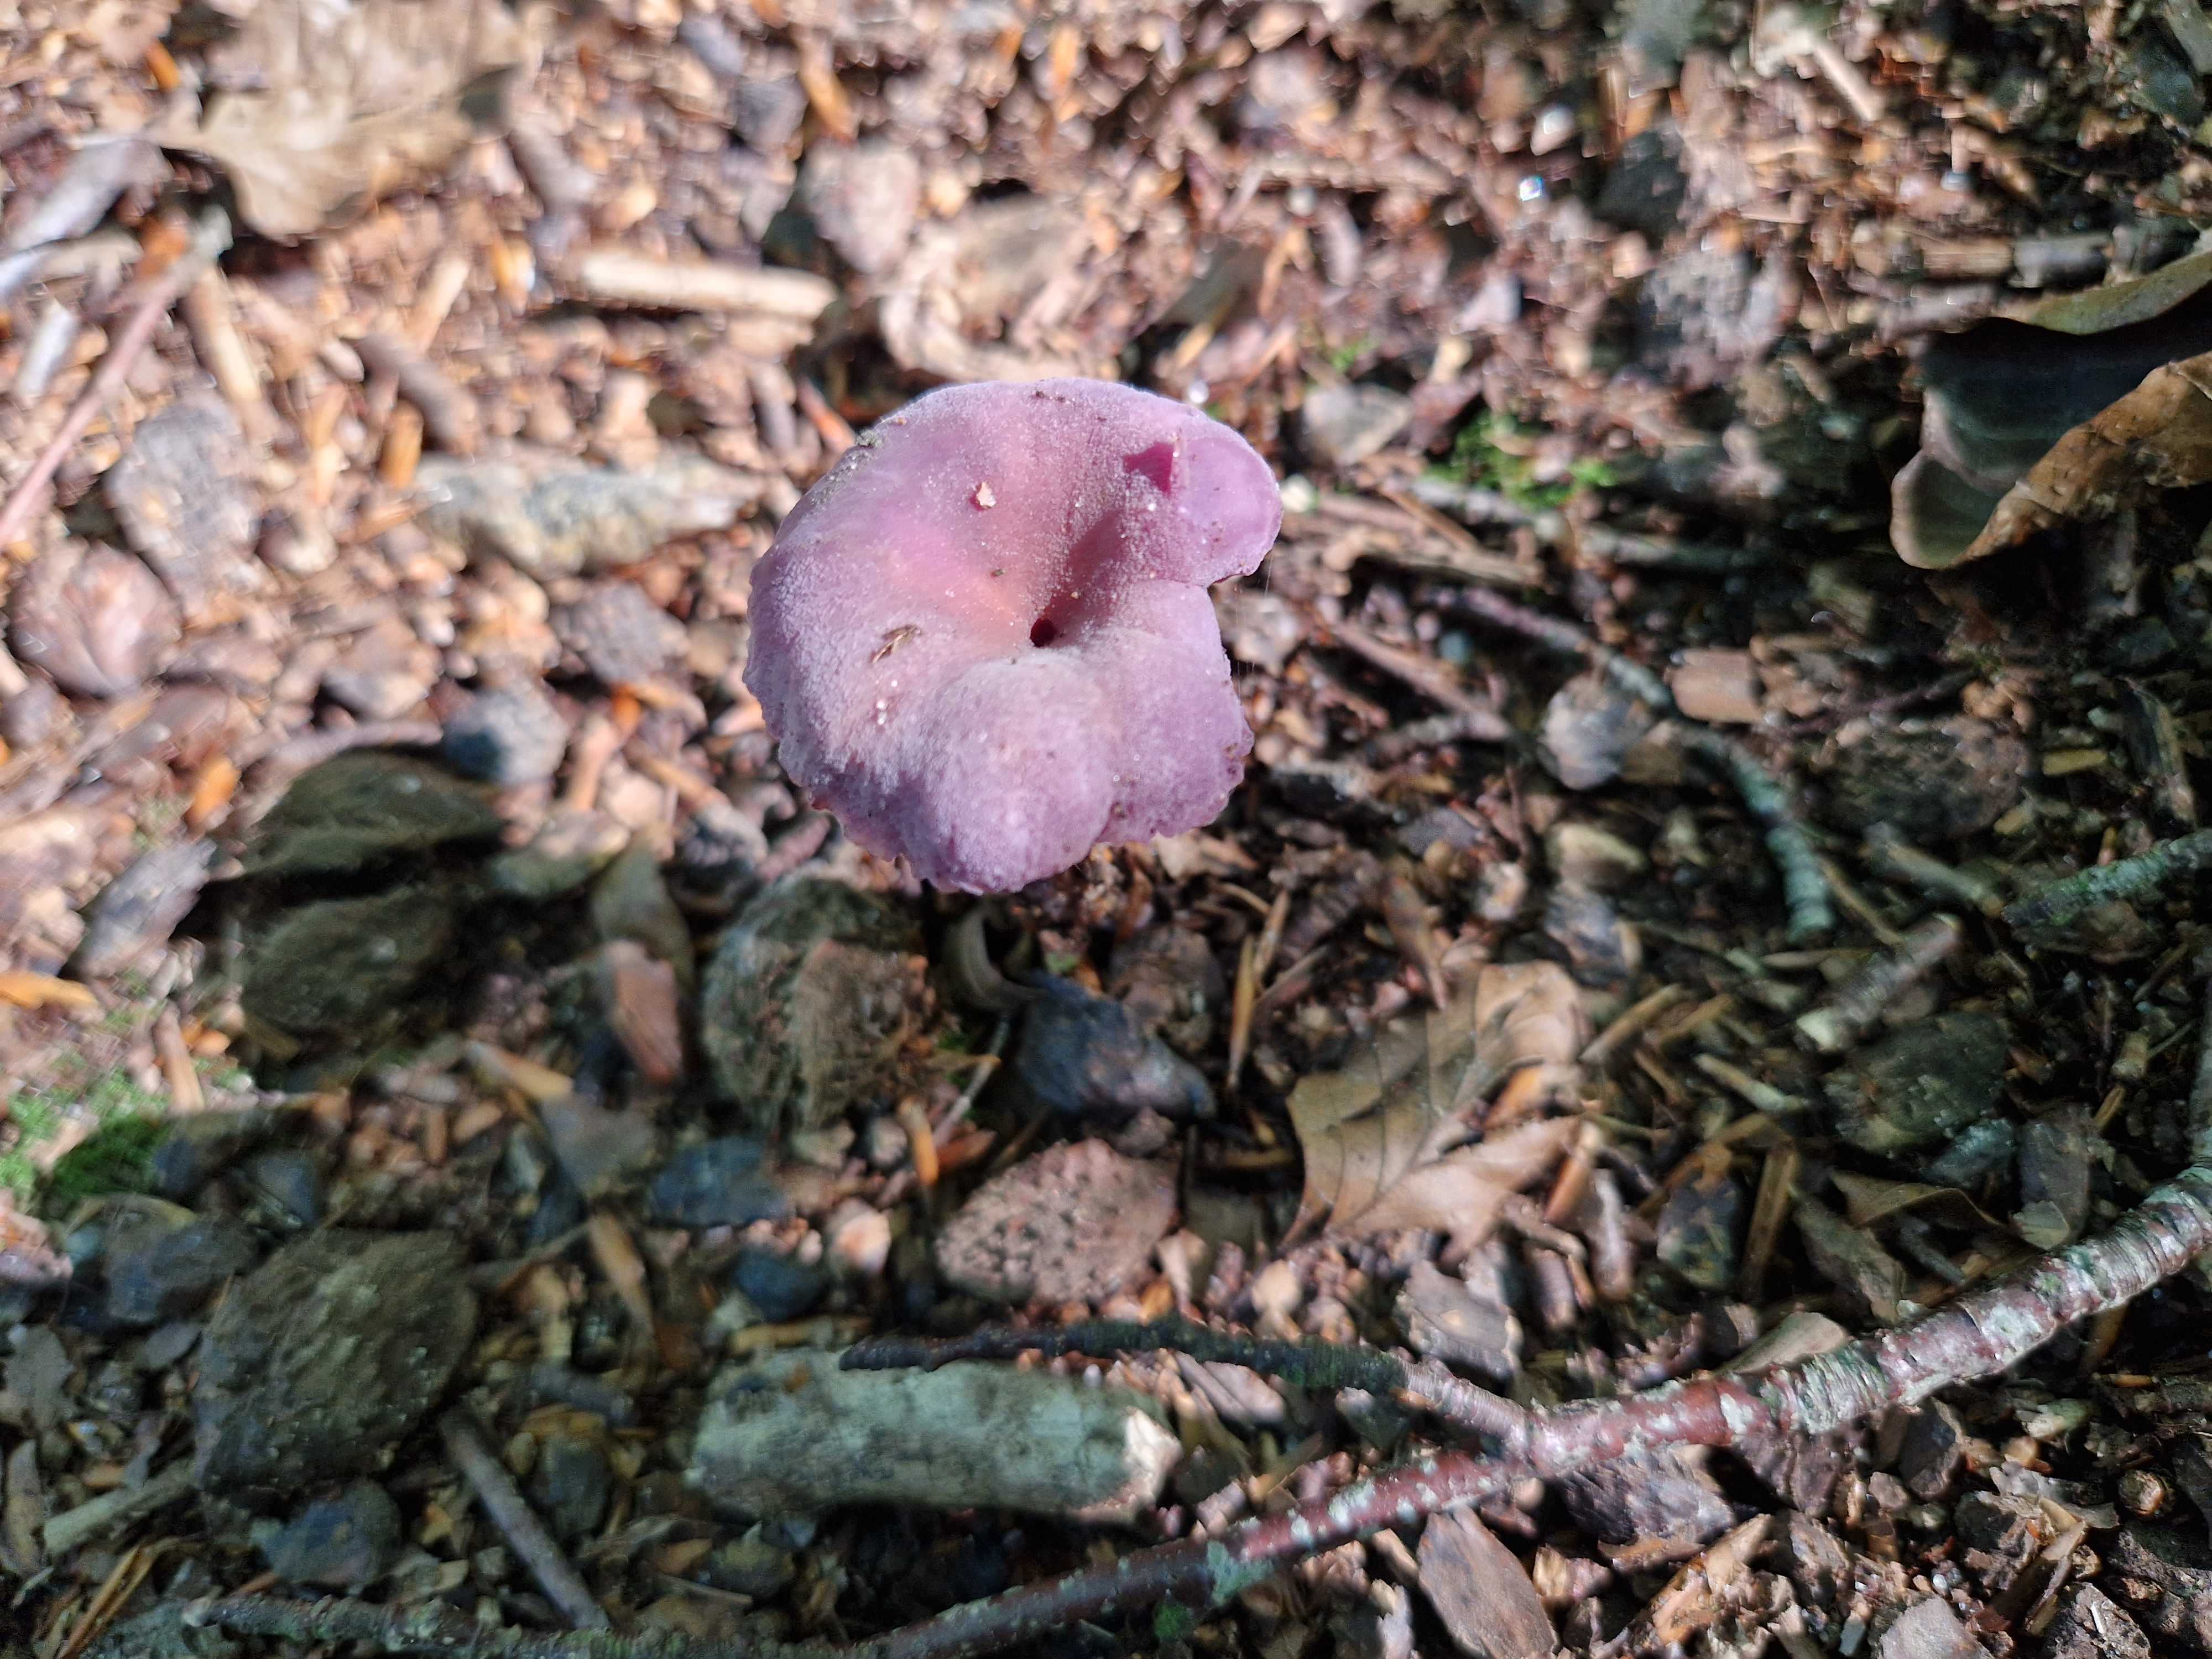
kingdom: Fungi
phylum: Basidiomycota
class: Agaricomycetes
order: Agaricales
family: Hydnangiaceae
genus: Laccaria
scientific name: Laccaria amethystina
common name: violet ametysthat
